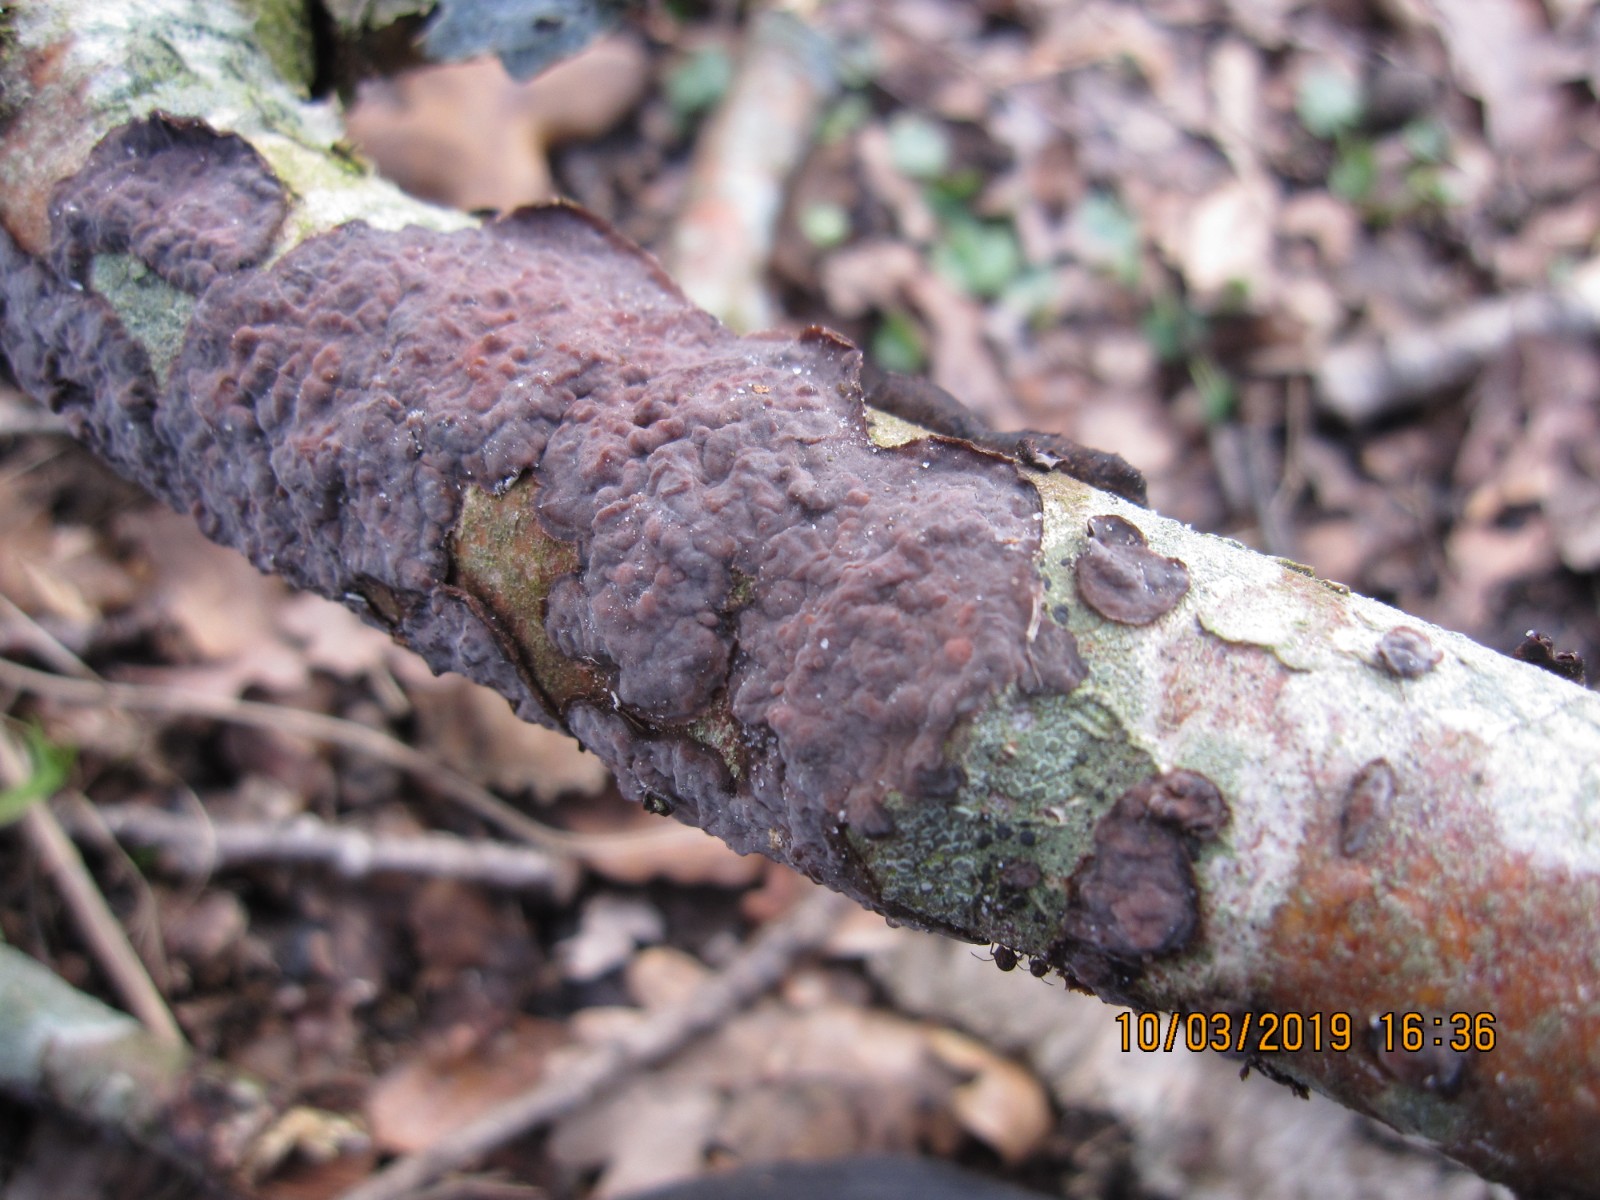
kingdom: Fungi
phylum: Basidiomycota
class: Agaricomycetes
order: Russulales
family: Peniophoraceae
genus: Peniophora
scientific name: Peniophora quercina
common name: ege-voksskind
